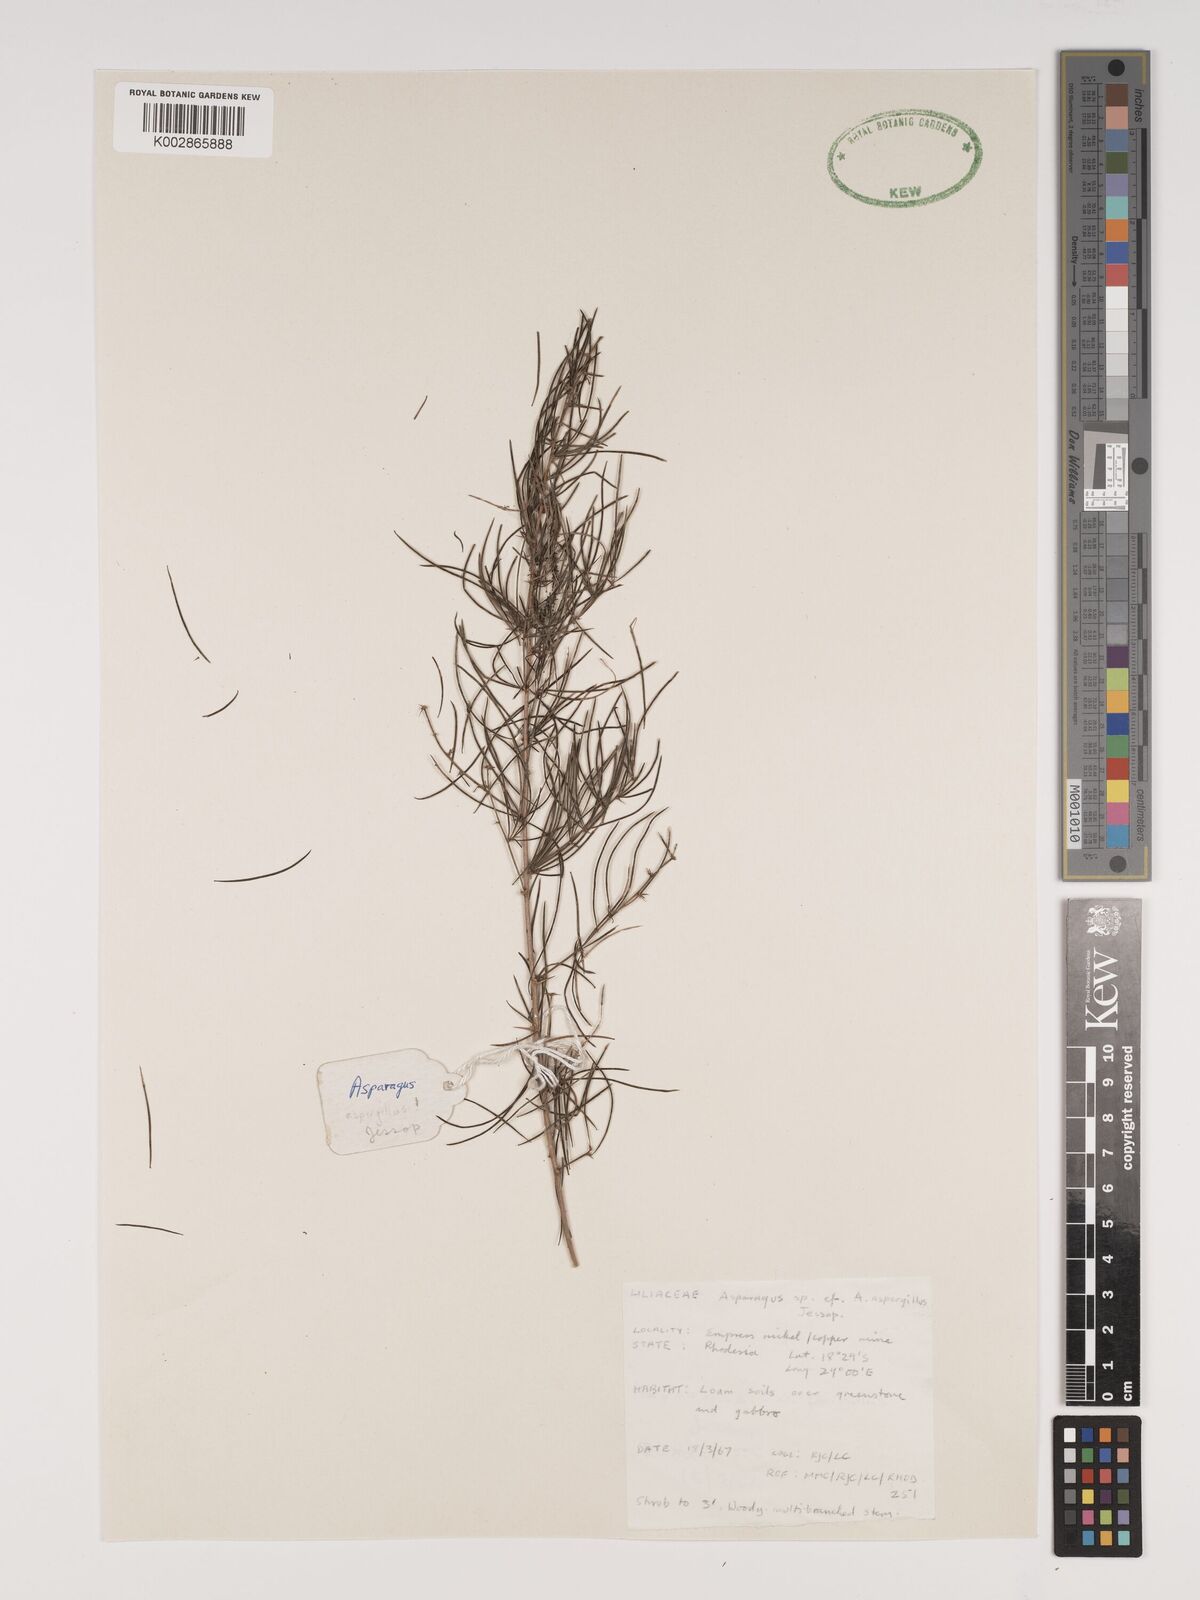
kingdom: Plantae
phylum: Tracheophyta
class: Liliopsida
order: Asparagales
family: Asparagaceae
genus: Asparagus
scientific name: Asparagus aspergillus
